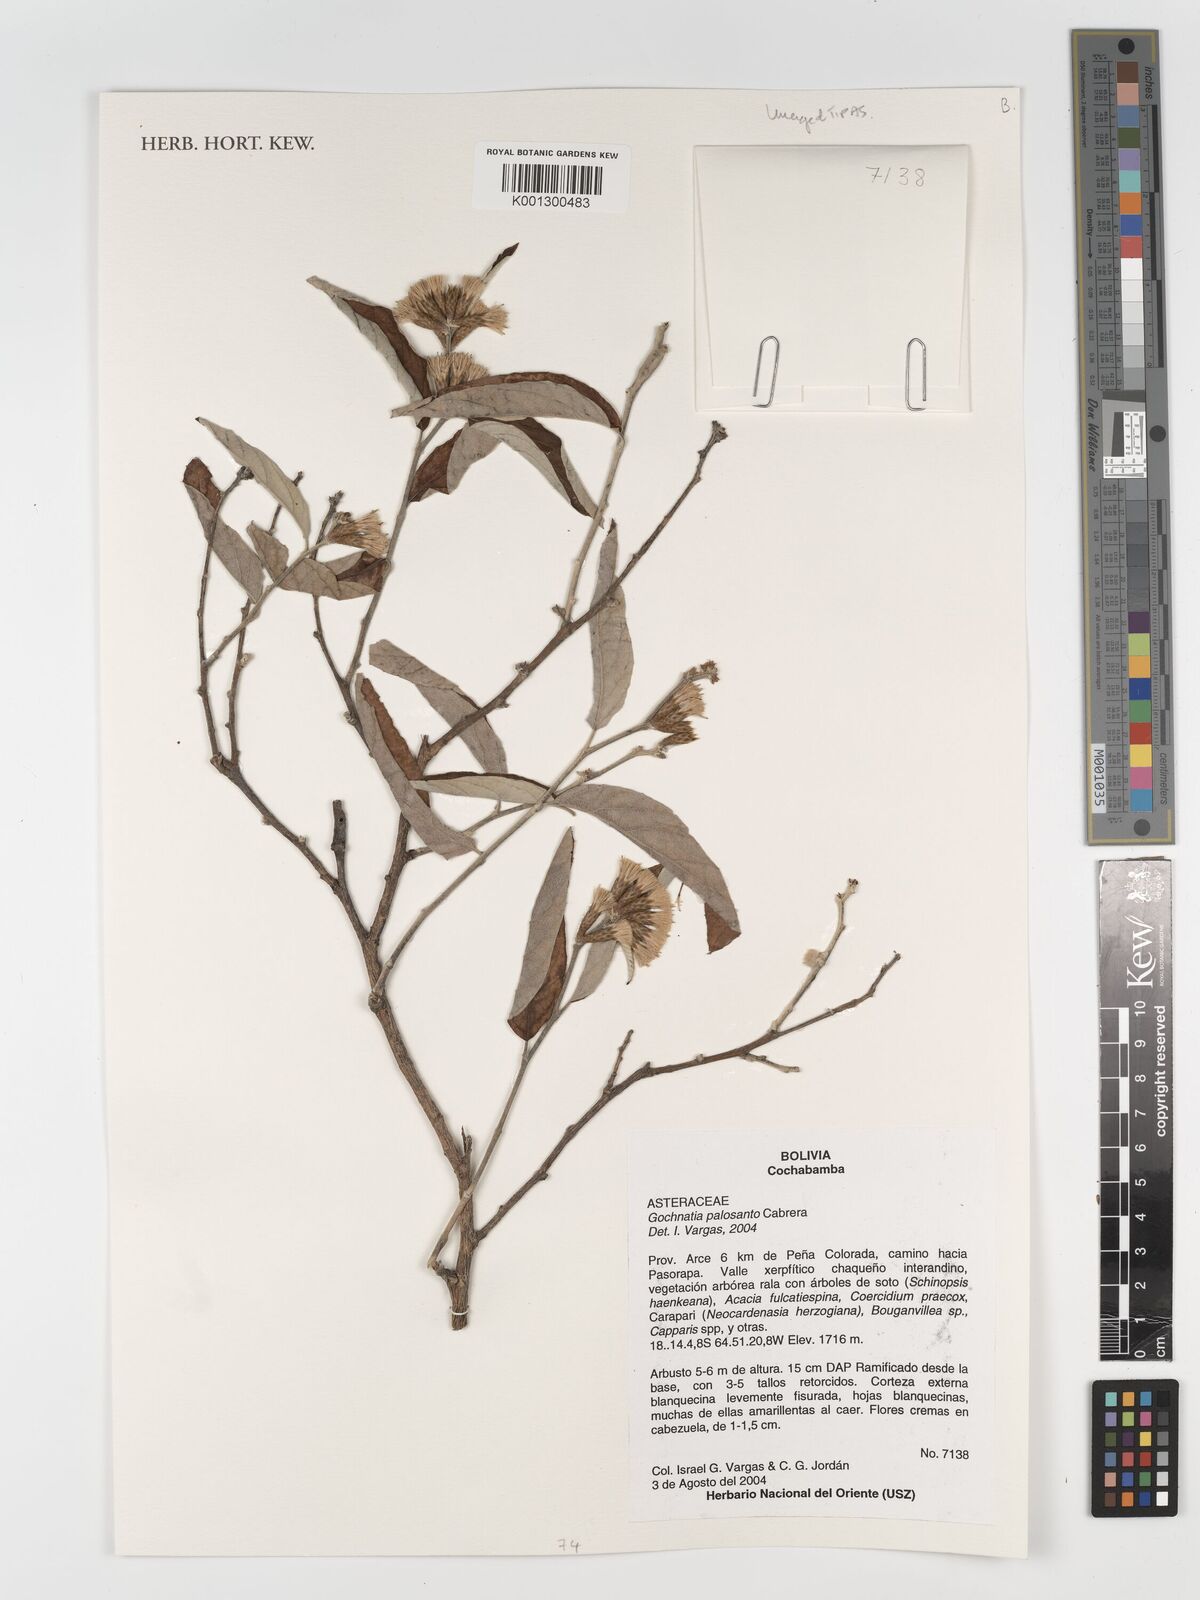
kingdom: Plantae
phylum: Tracheophyta
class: Magnoliopsida
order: Asterales
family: Asteraceae
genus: Gochnatia
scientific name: Gochnatia palosanto
